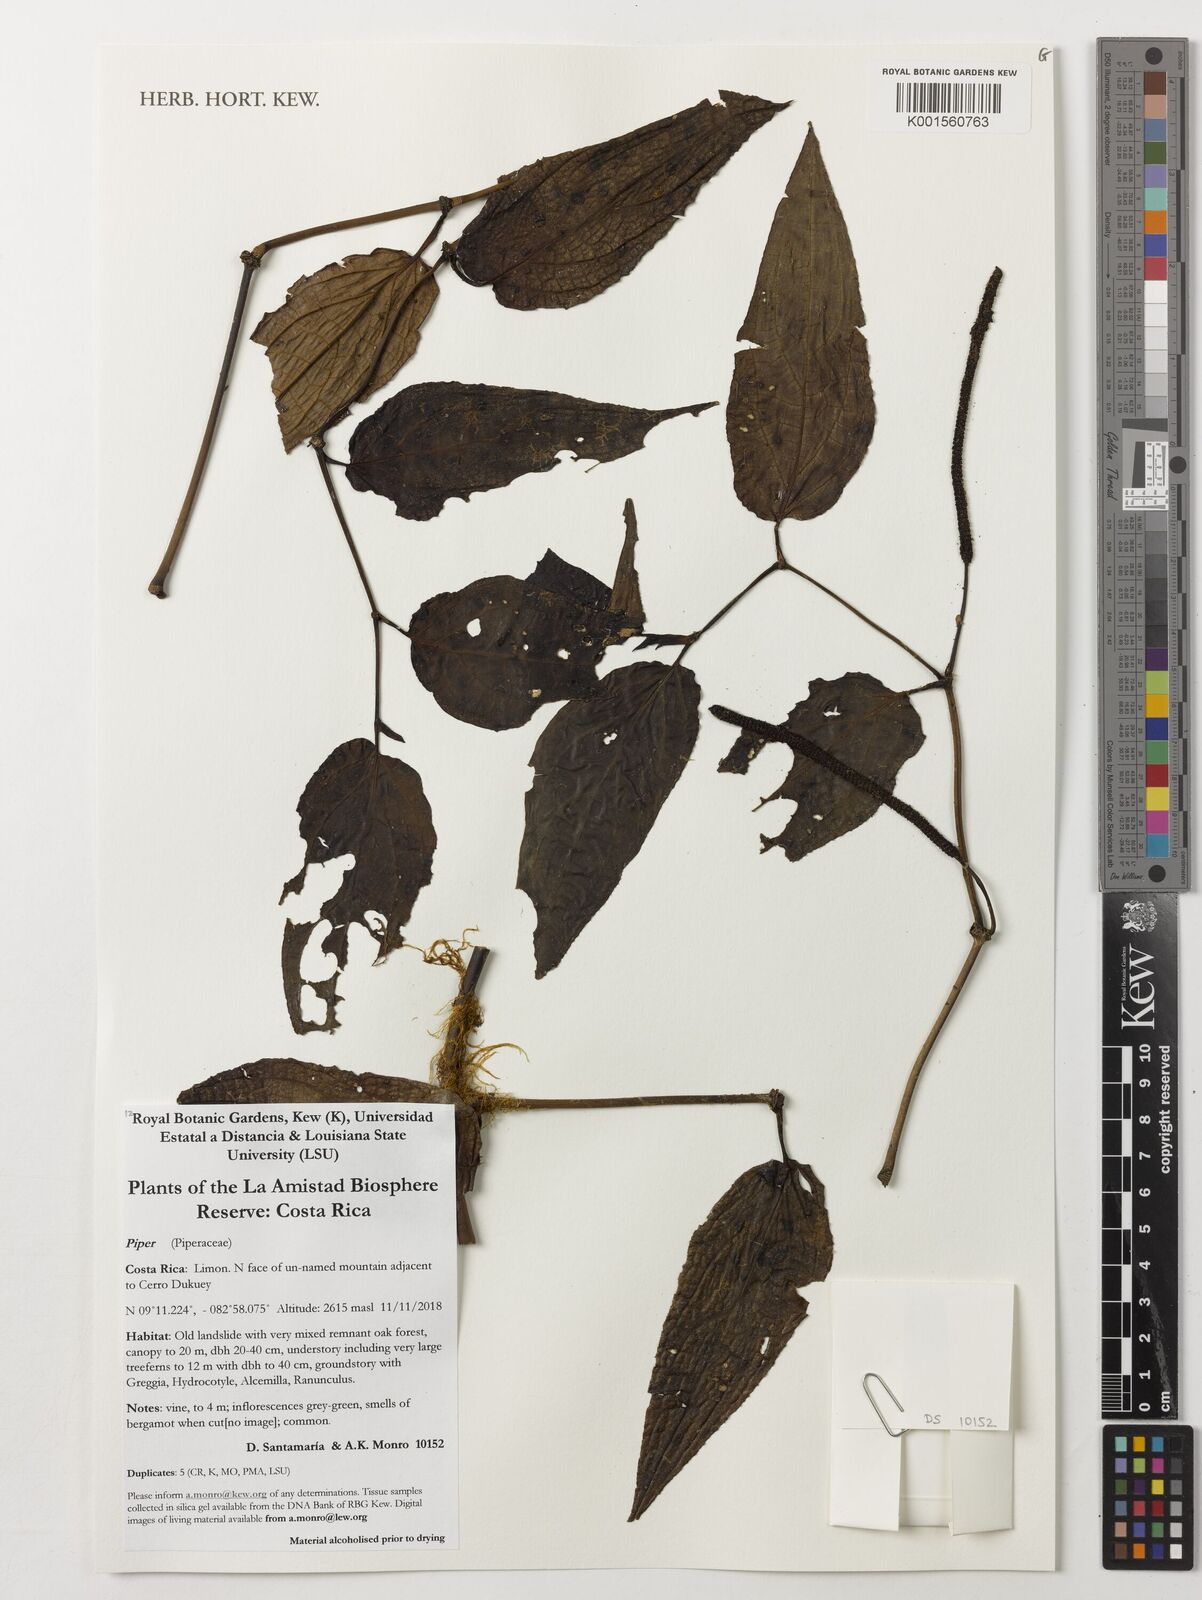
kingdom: Plantae
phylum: Tracheophyta
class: Magnoliopsida
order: Piperales
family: Piperaceae
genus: Piper
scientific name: Piper
